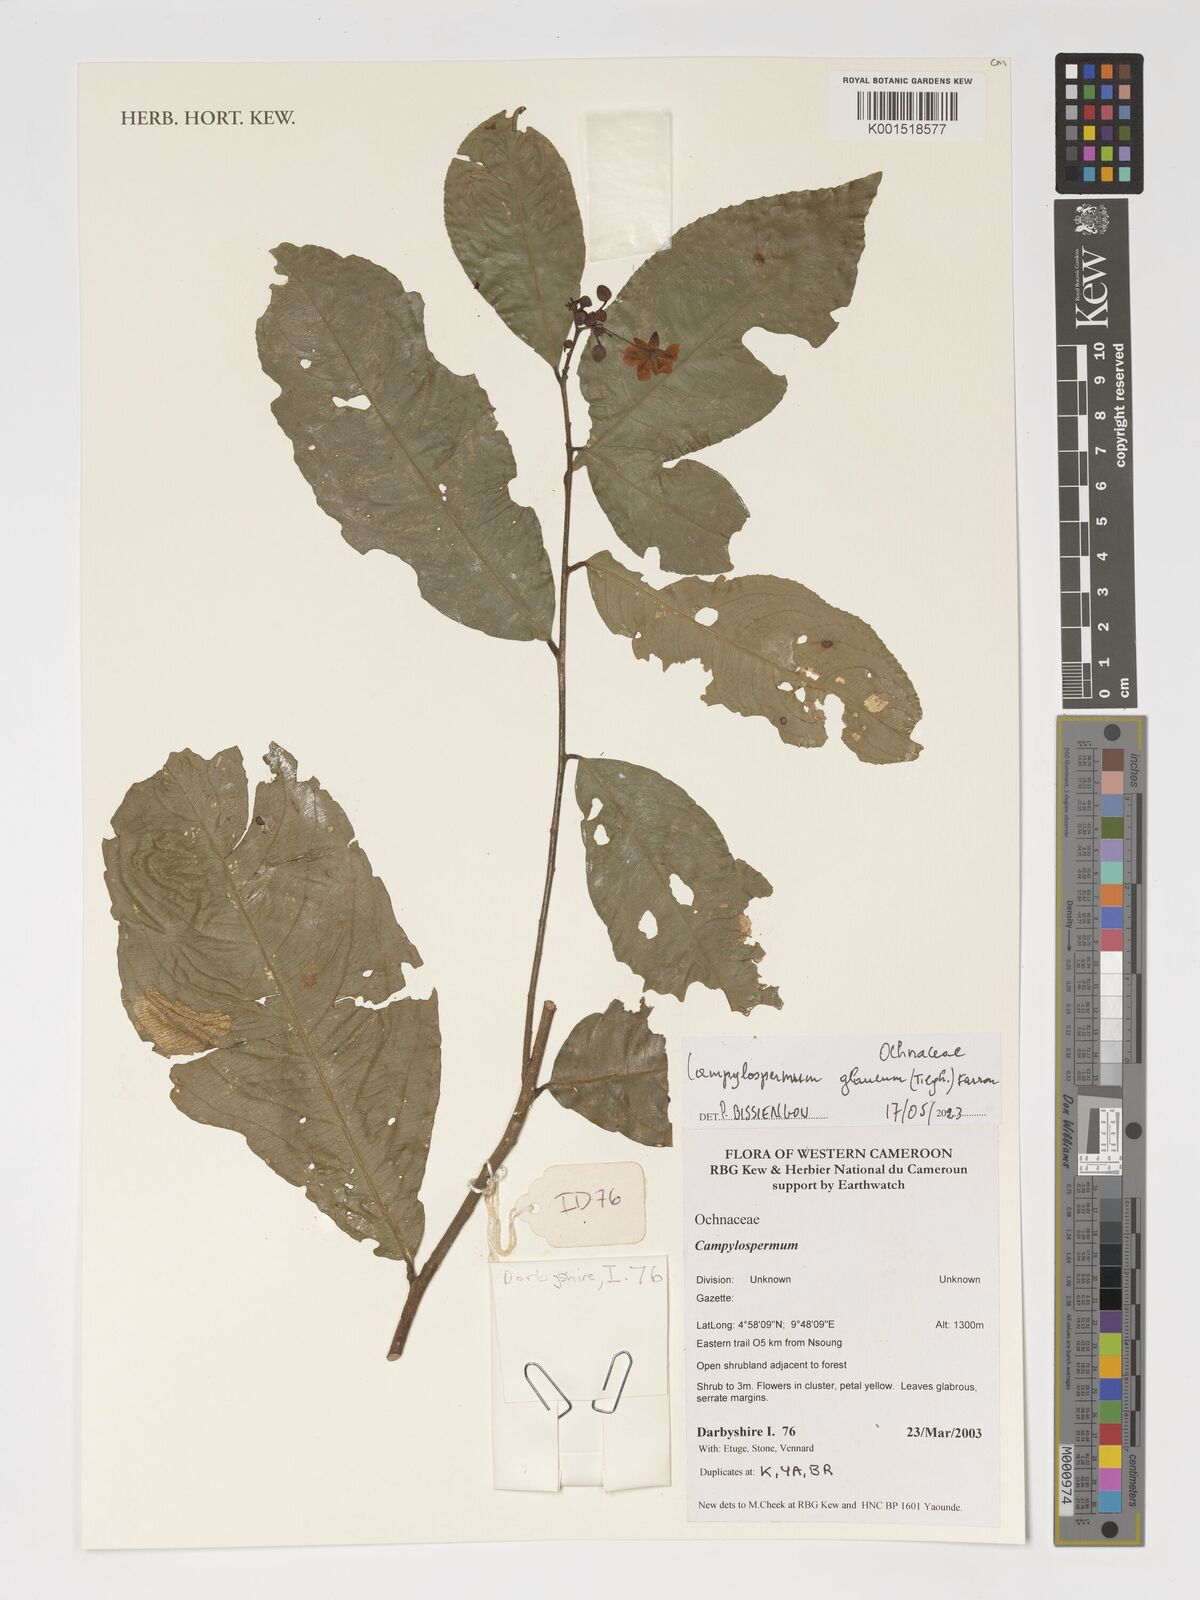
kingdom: Plantae
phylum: Tracheophyta
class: Magnoliopsida
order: Malpighiales
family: Ochnaceae
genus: Campylospermum
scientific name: Campylospermum glaucum
